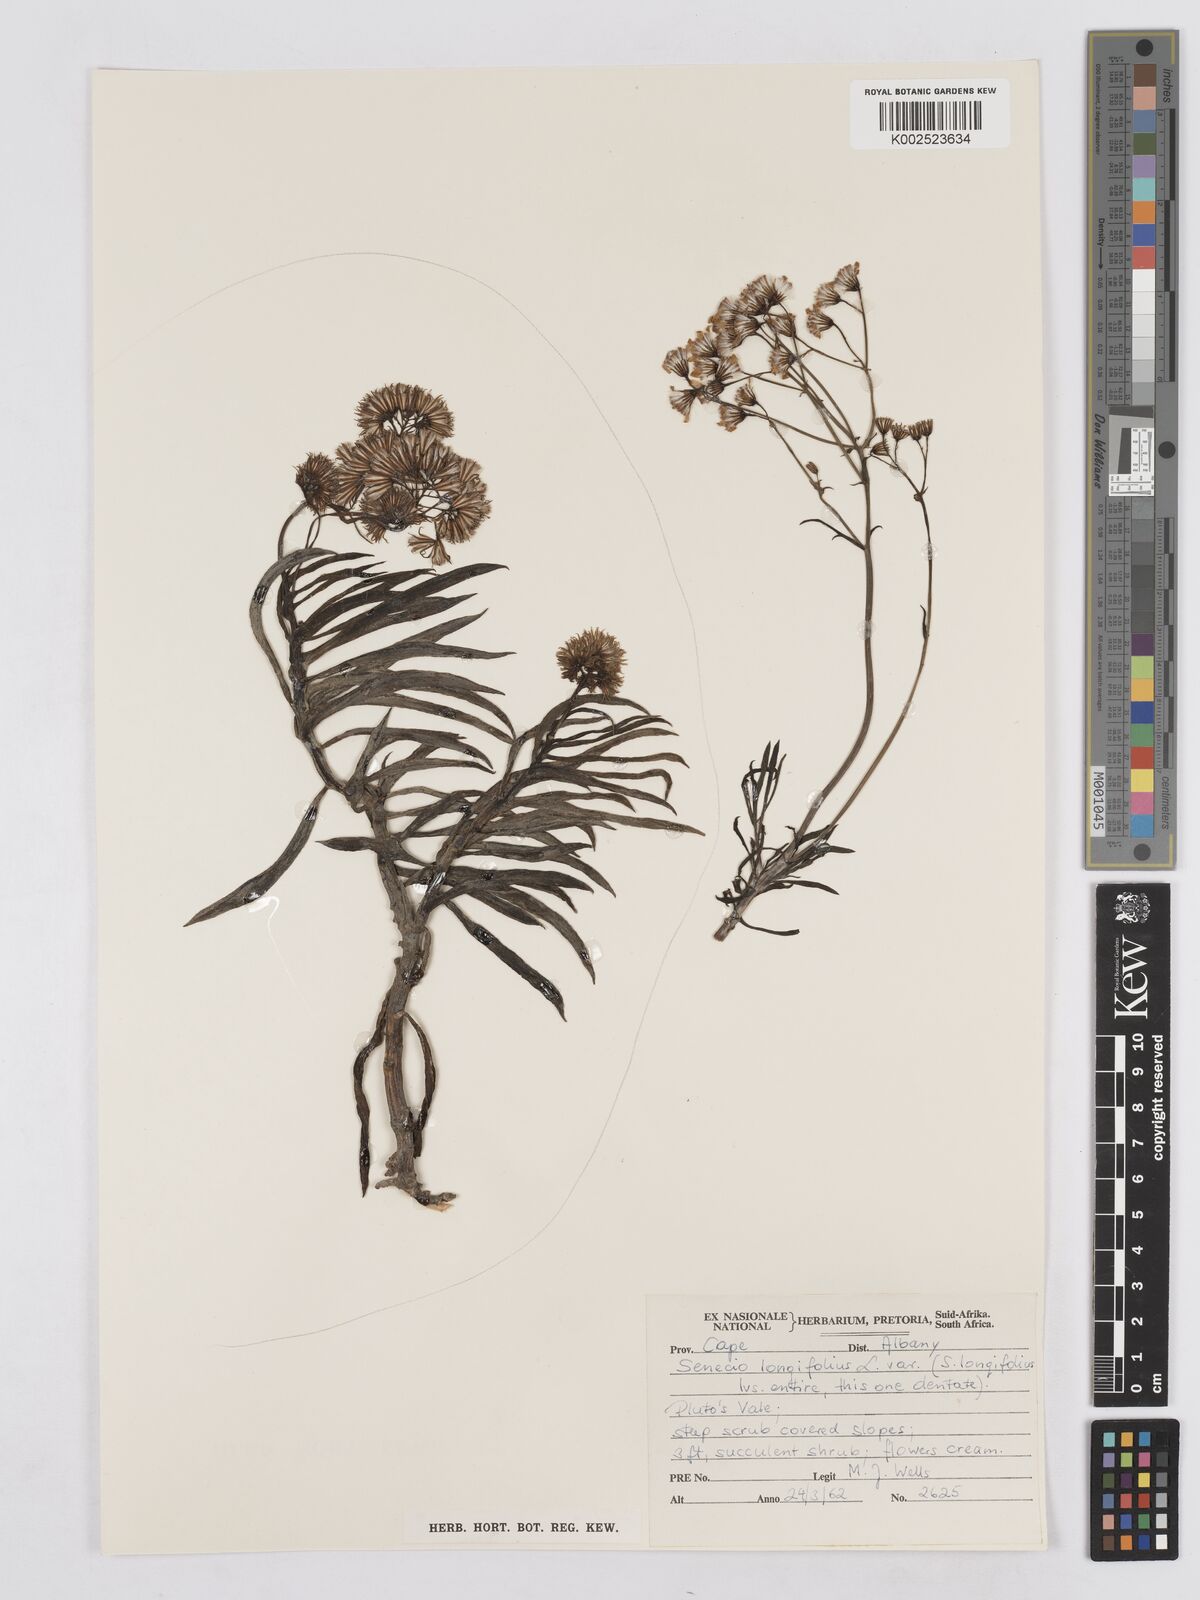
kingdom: Plantae
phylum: Tracheophyta
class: Magnoliopsida
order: Asterales
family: Asteraceae
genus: Senecio
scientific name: Senecio linifolius
